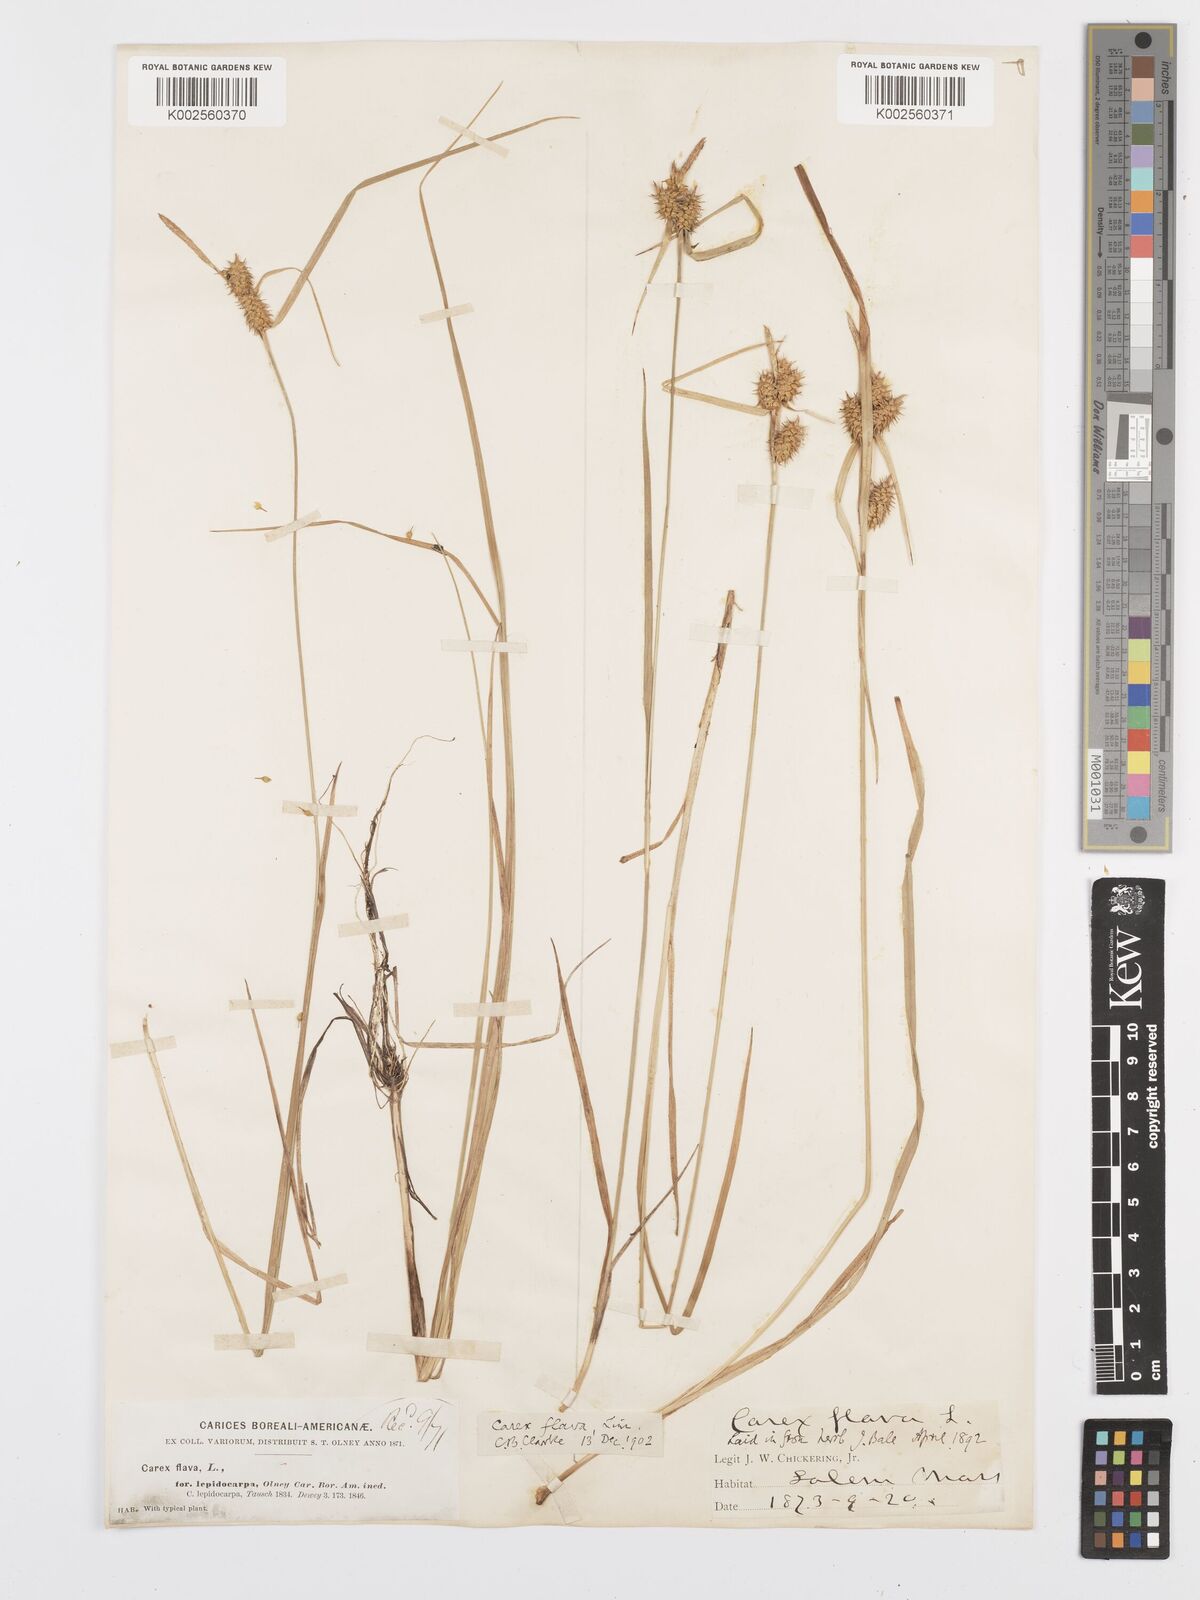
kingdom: Plantae
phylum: Tracheophyta
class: Liliopsida
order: Poales
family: Cyperaceae
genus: Carex
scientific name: Carex lepidocarpa
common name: Long-stalked yellow-sedge
